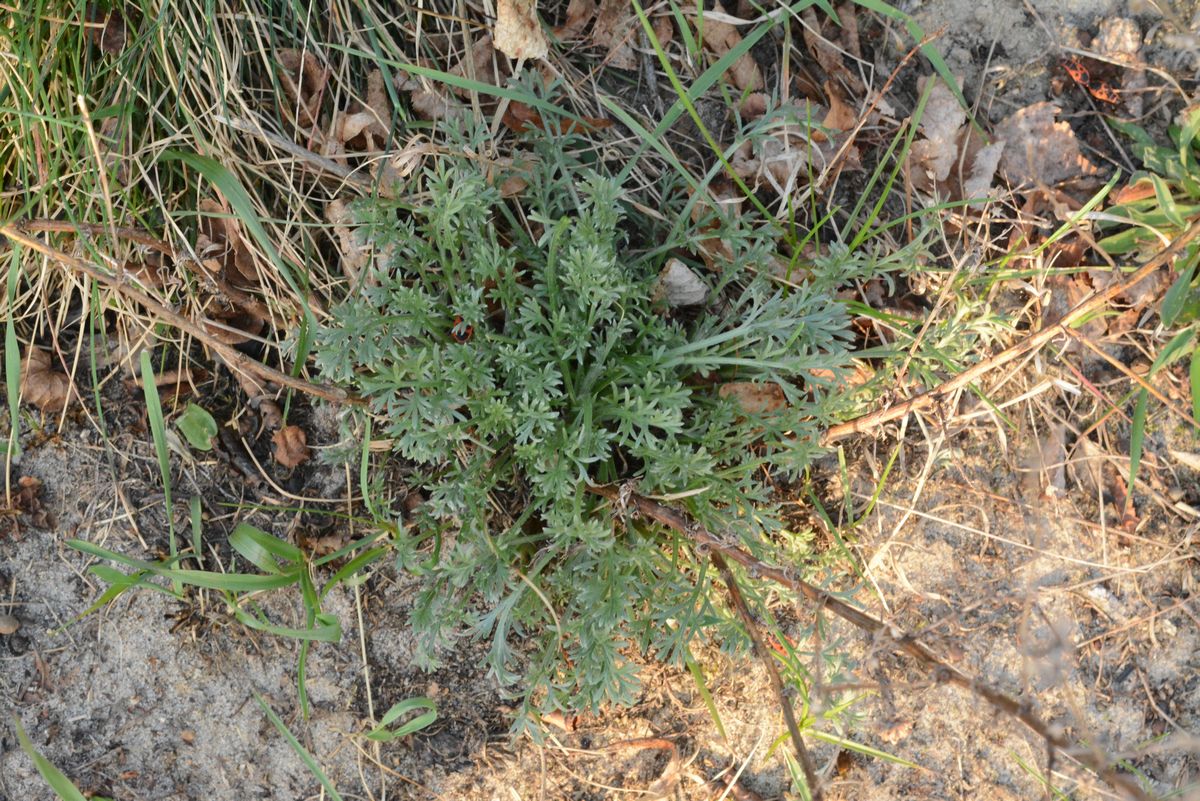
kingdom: Plantae
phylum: Tracheophyta
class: Magnoliopsida
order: Asterales
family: Asteraceae
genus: Artemisia
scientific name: Artemisia
